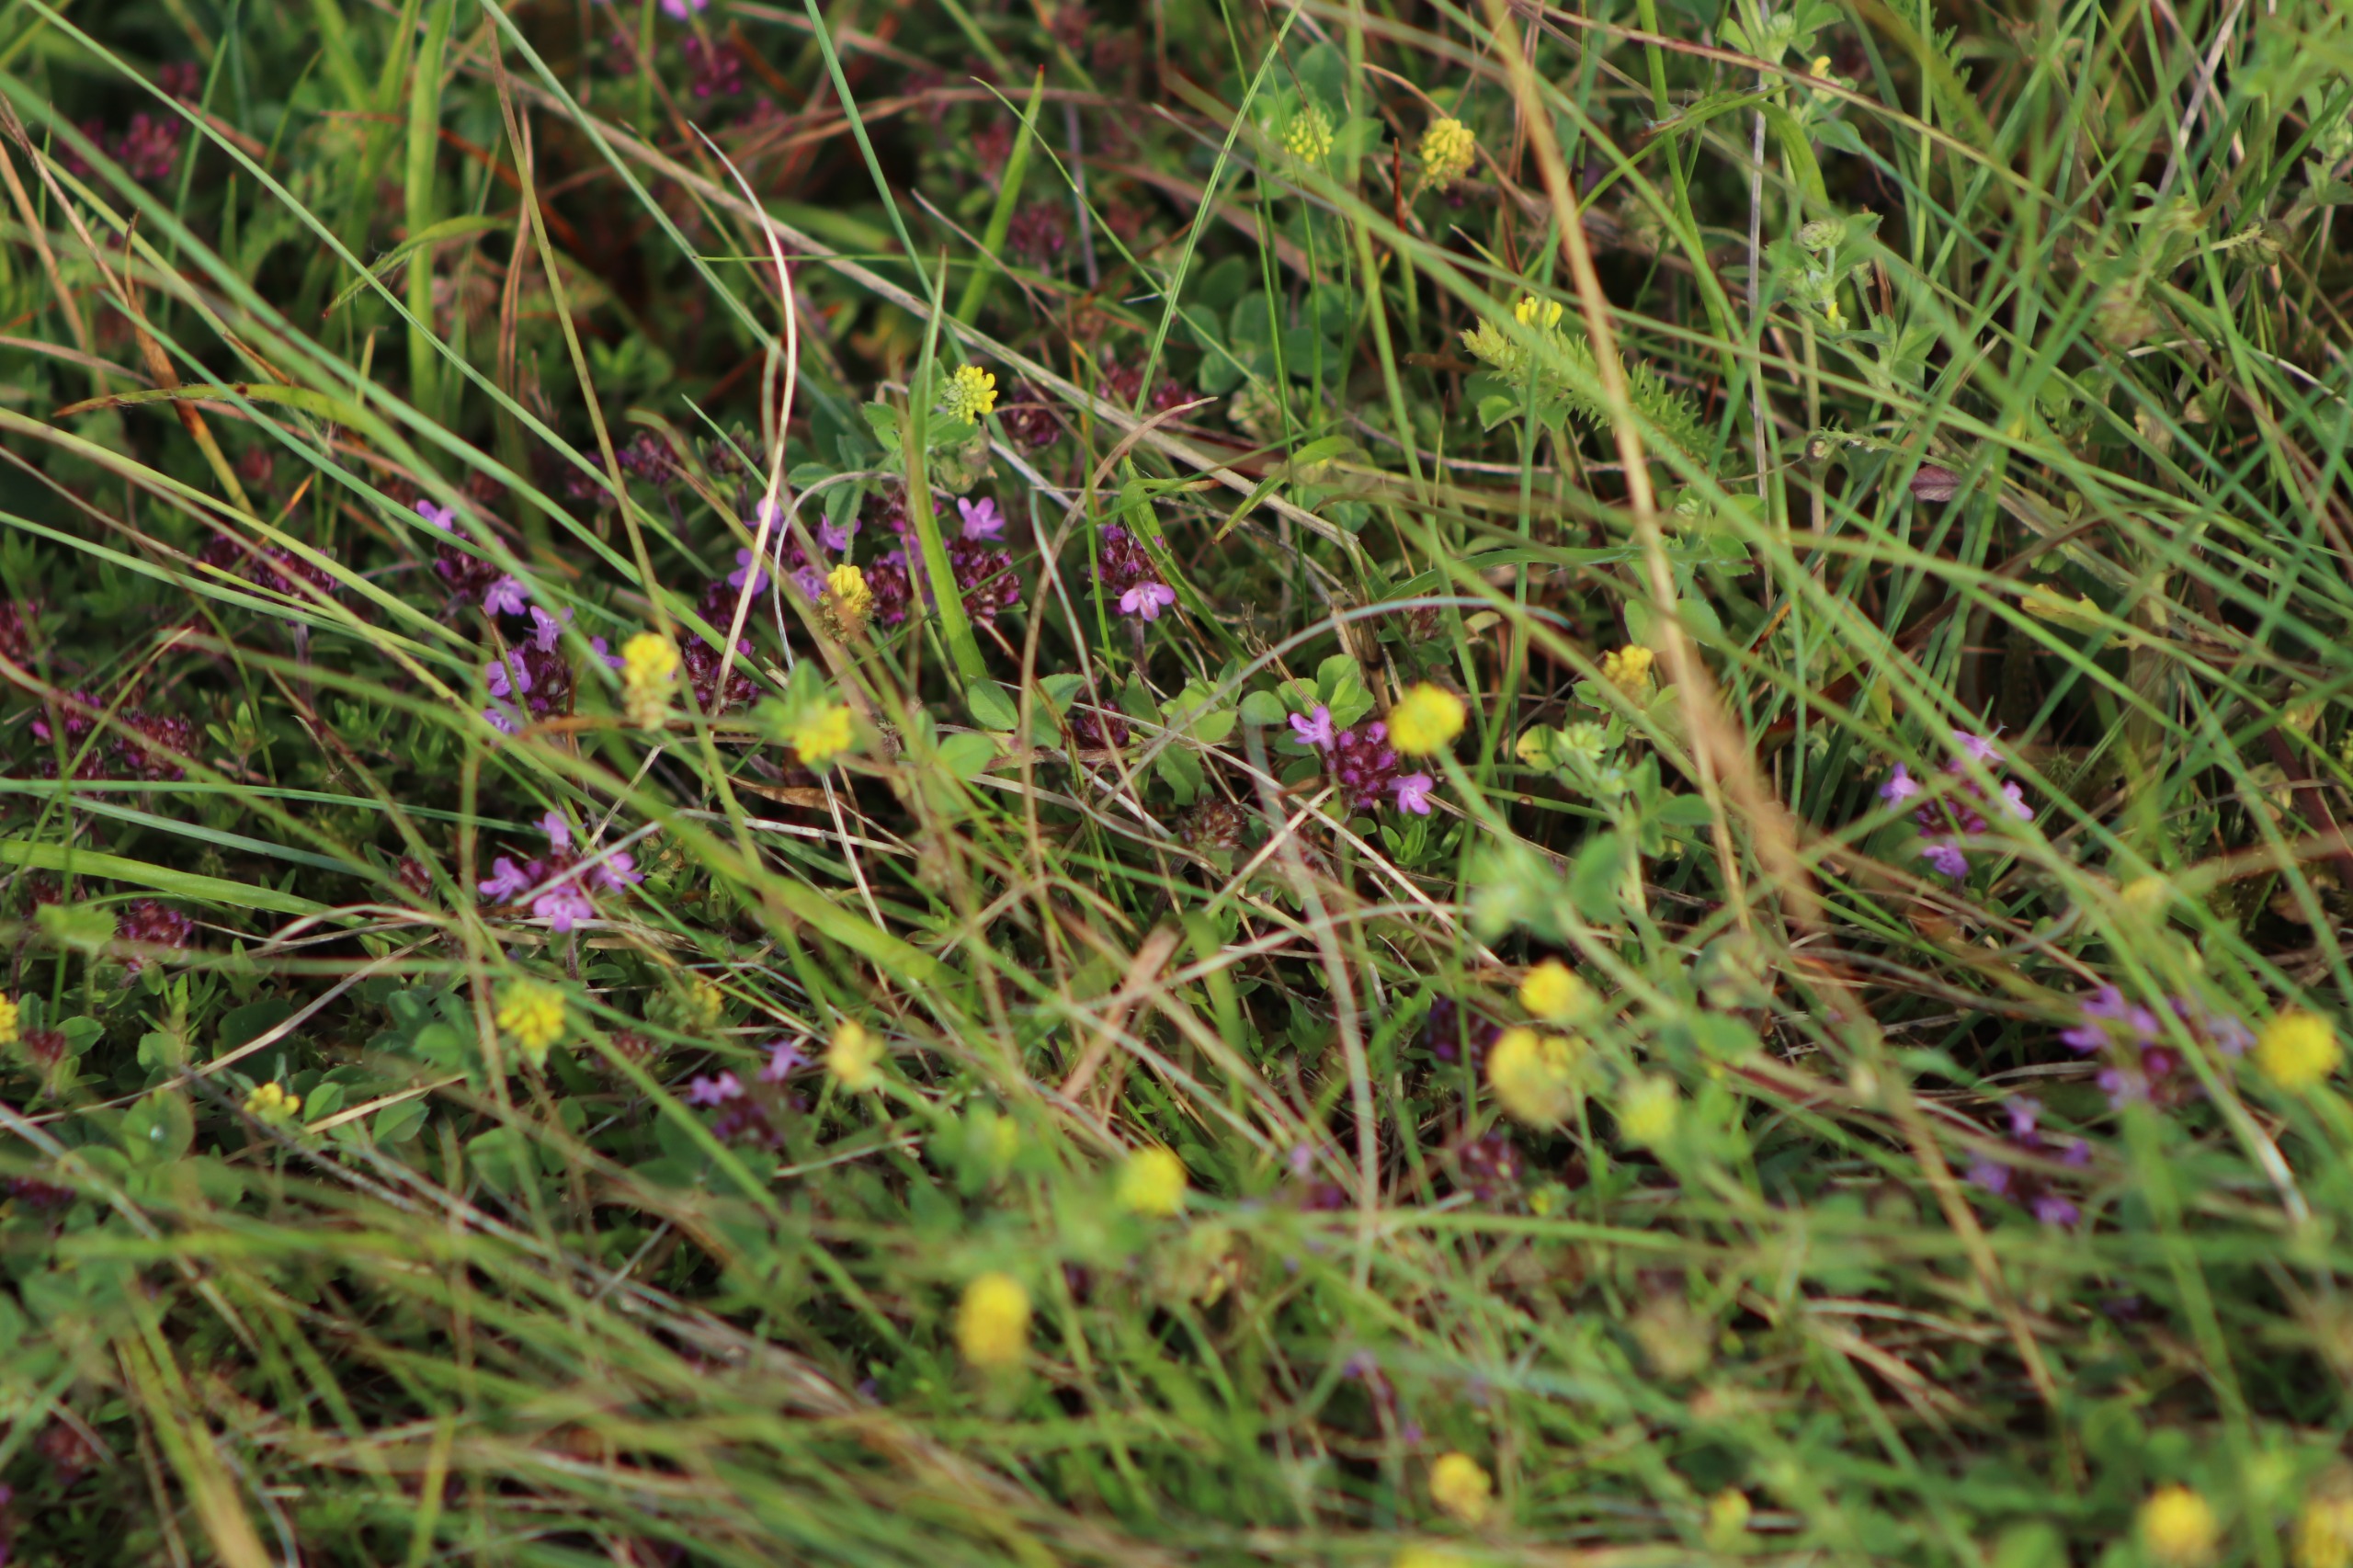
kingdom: Plantae
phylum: Tracheophyta
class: Magnoliopsida
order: Fabales
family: Fabaceae
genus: Medicago
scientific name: Medicago lupulina
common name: Humle-sneglebælg
